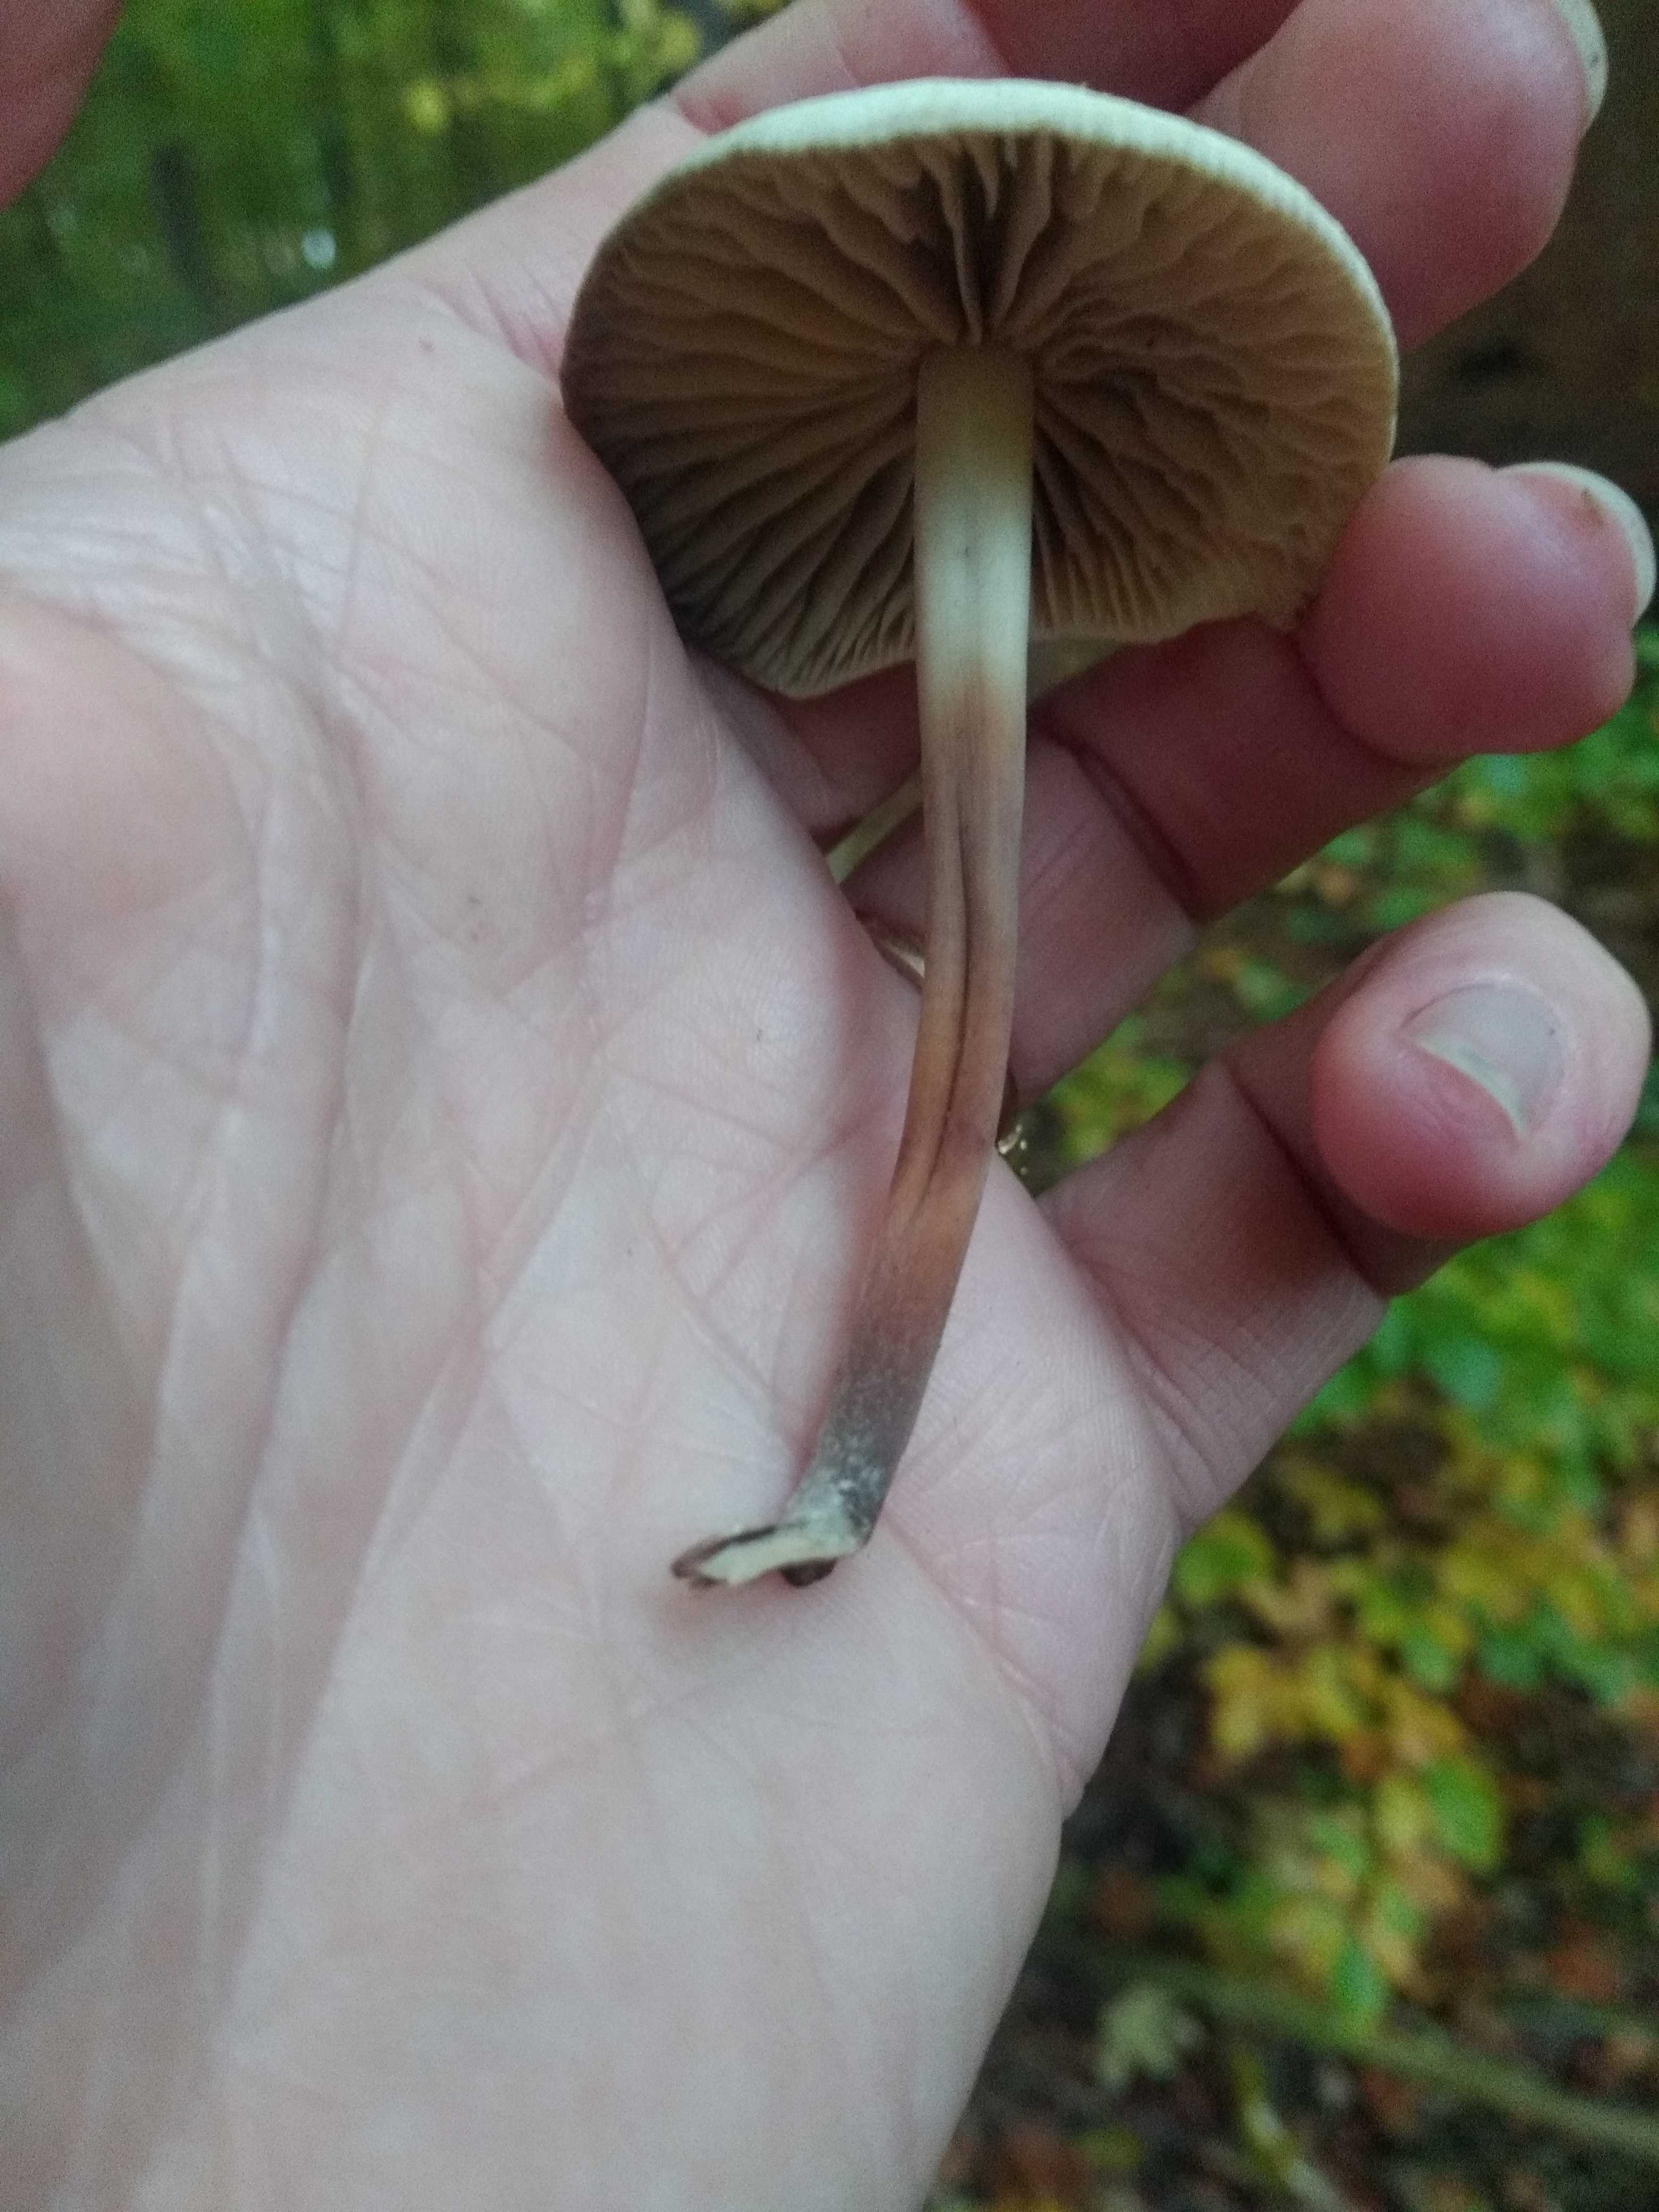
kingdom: Fungi
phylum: Basidiomycota
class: Agaricomycetes
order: Agaricales
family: Marasmiaceae
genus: Marasmius
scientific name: Marasmius wynneae
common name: hvælvet bruskhat
